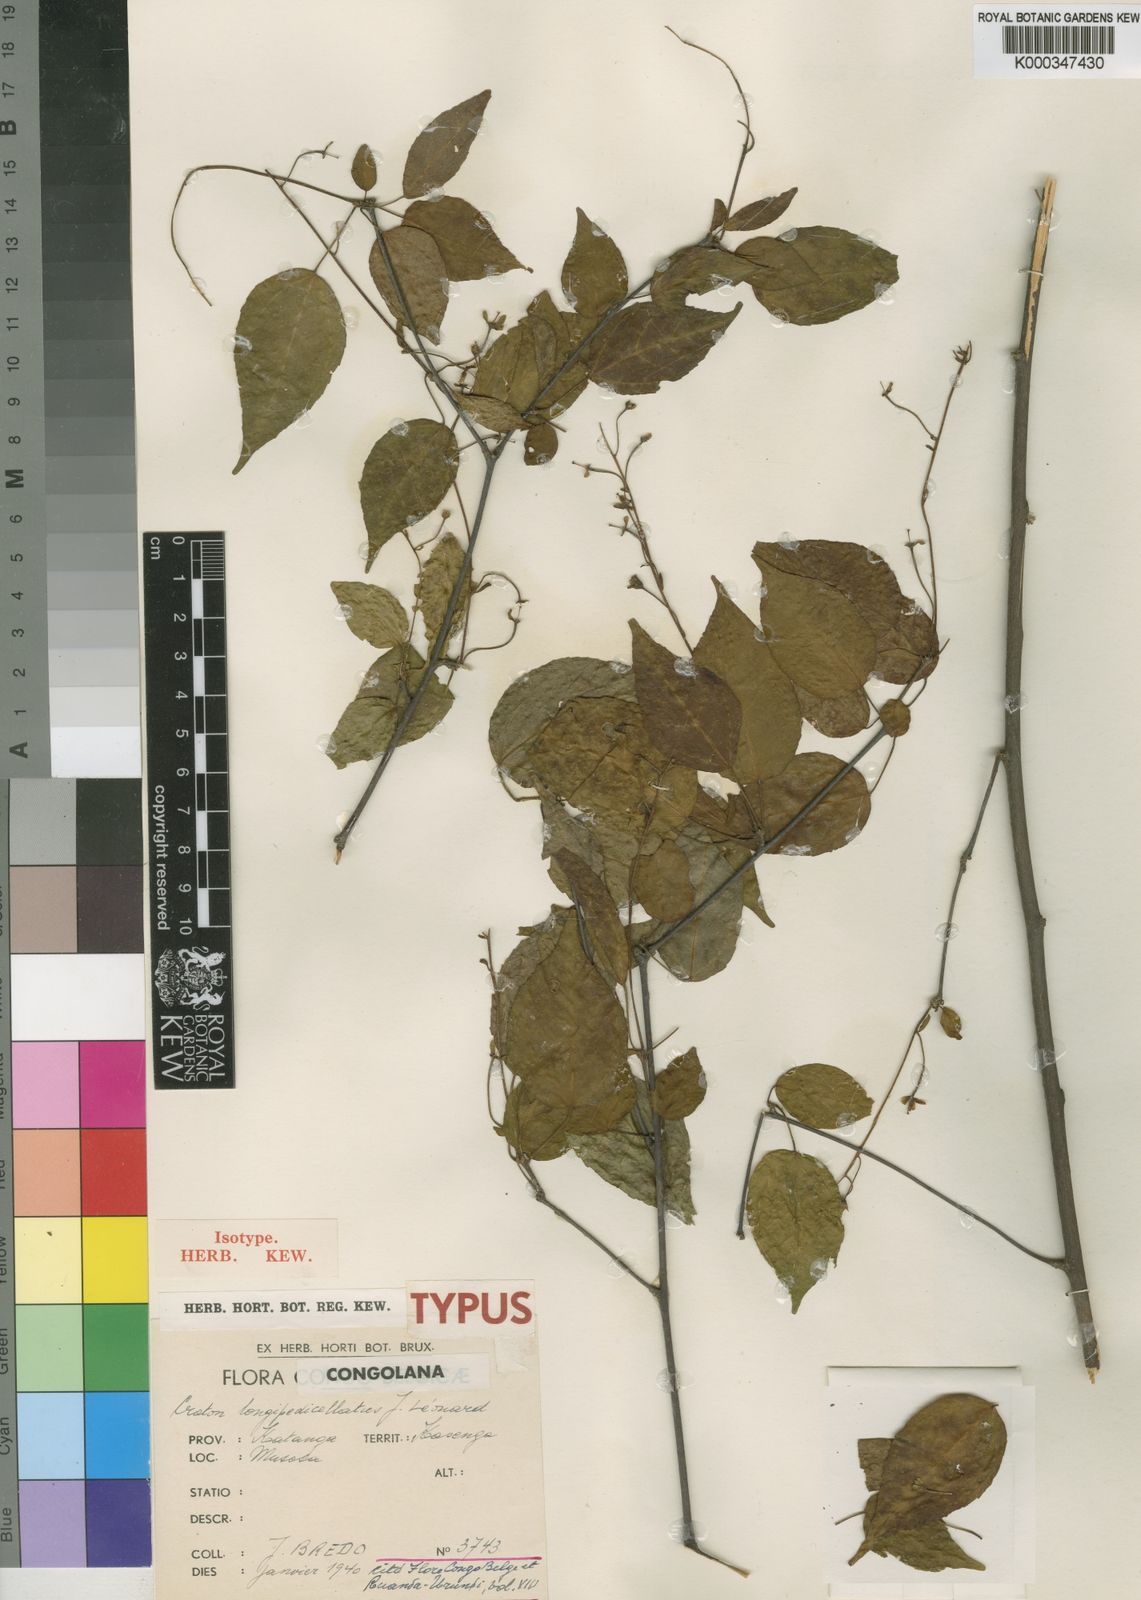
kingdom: Plantae
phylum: Tracheophyta
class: Magnoliopsida
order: Malpighiales
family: Euphorbiaceae
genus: Croton
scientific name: Croton
